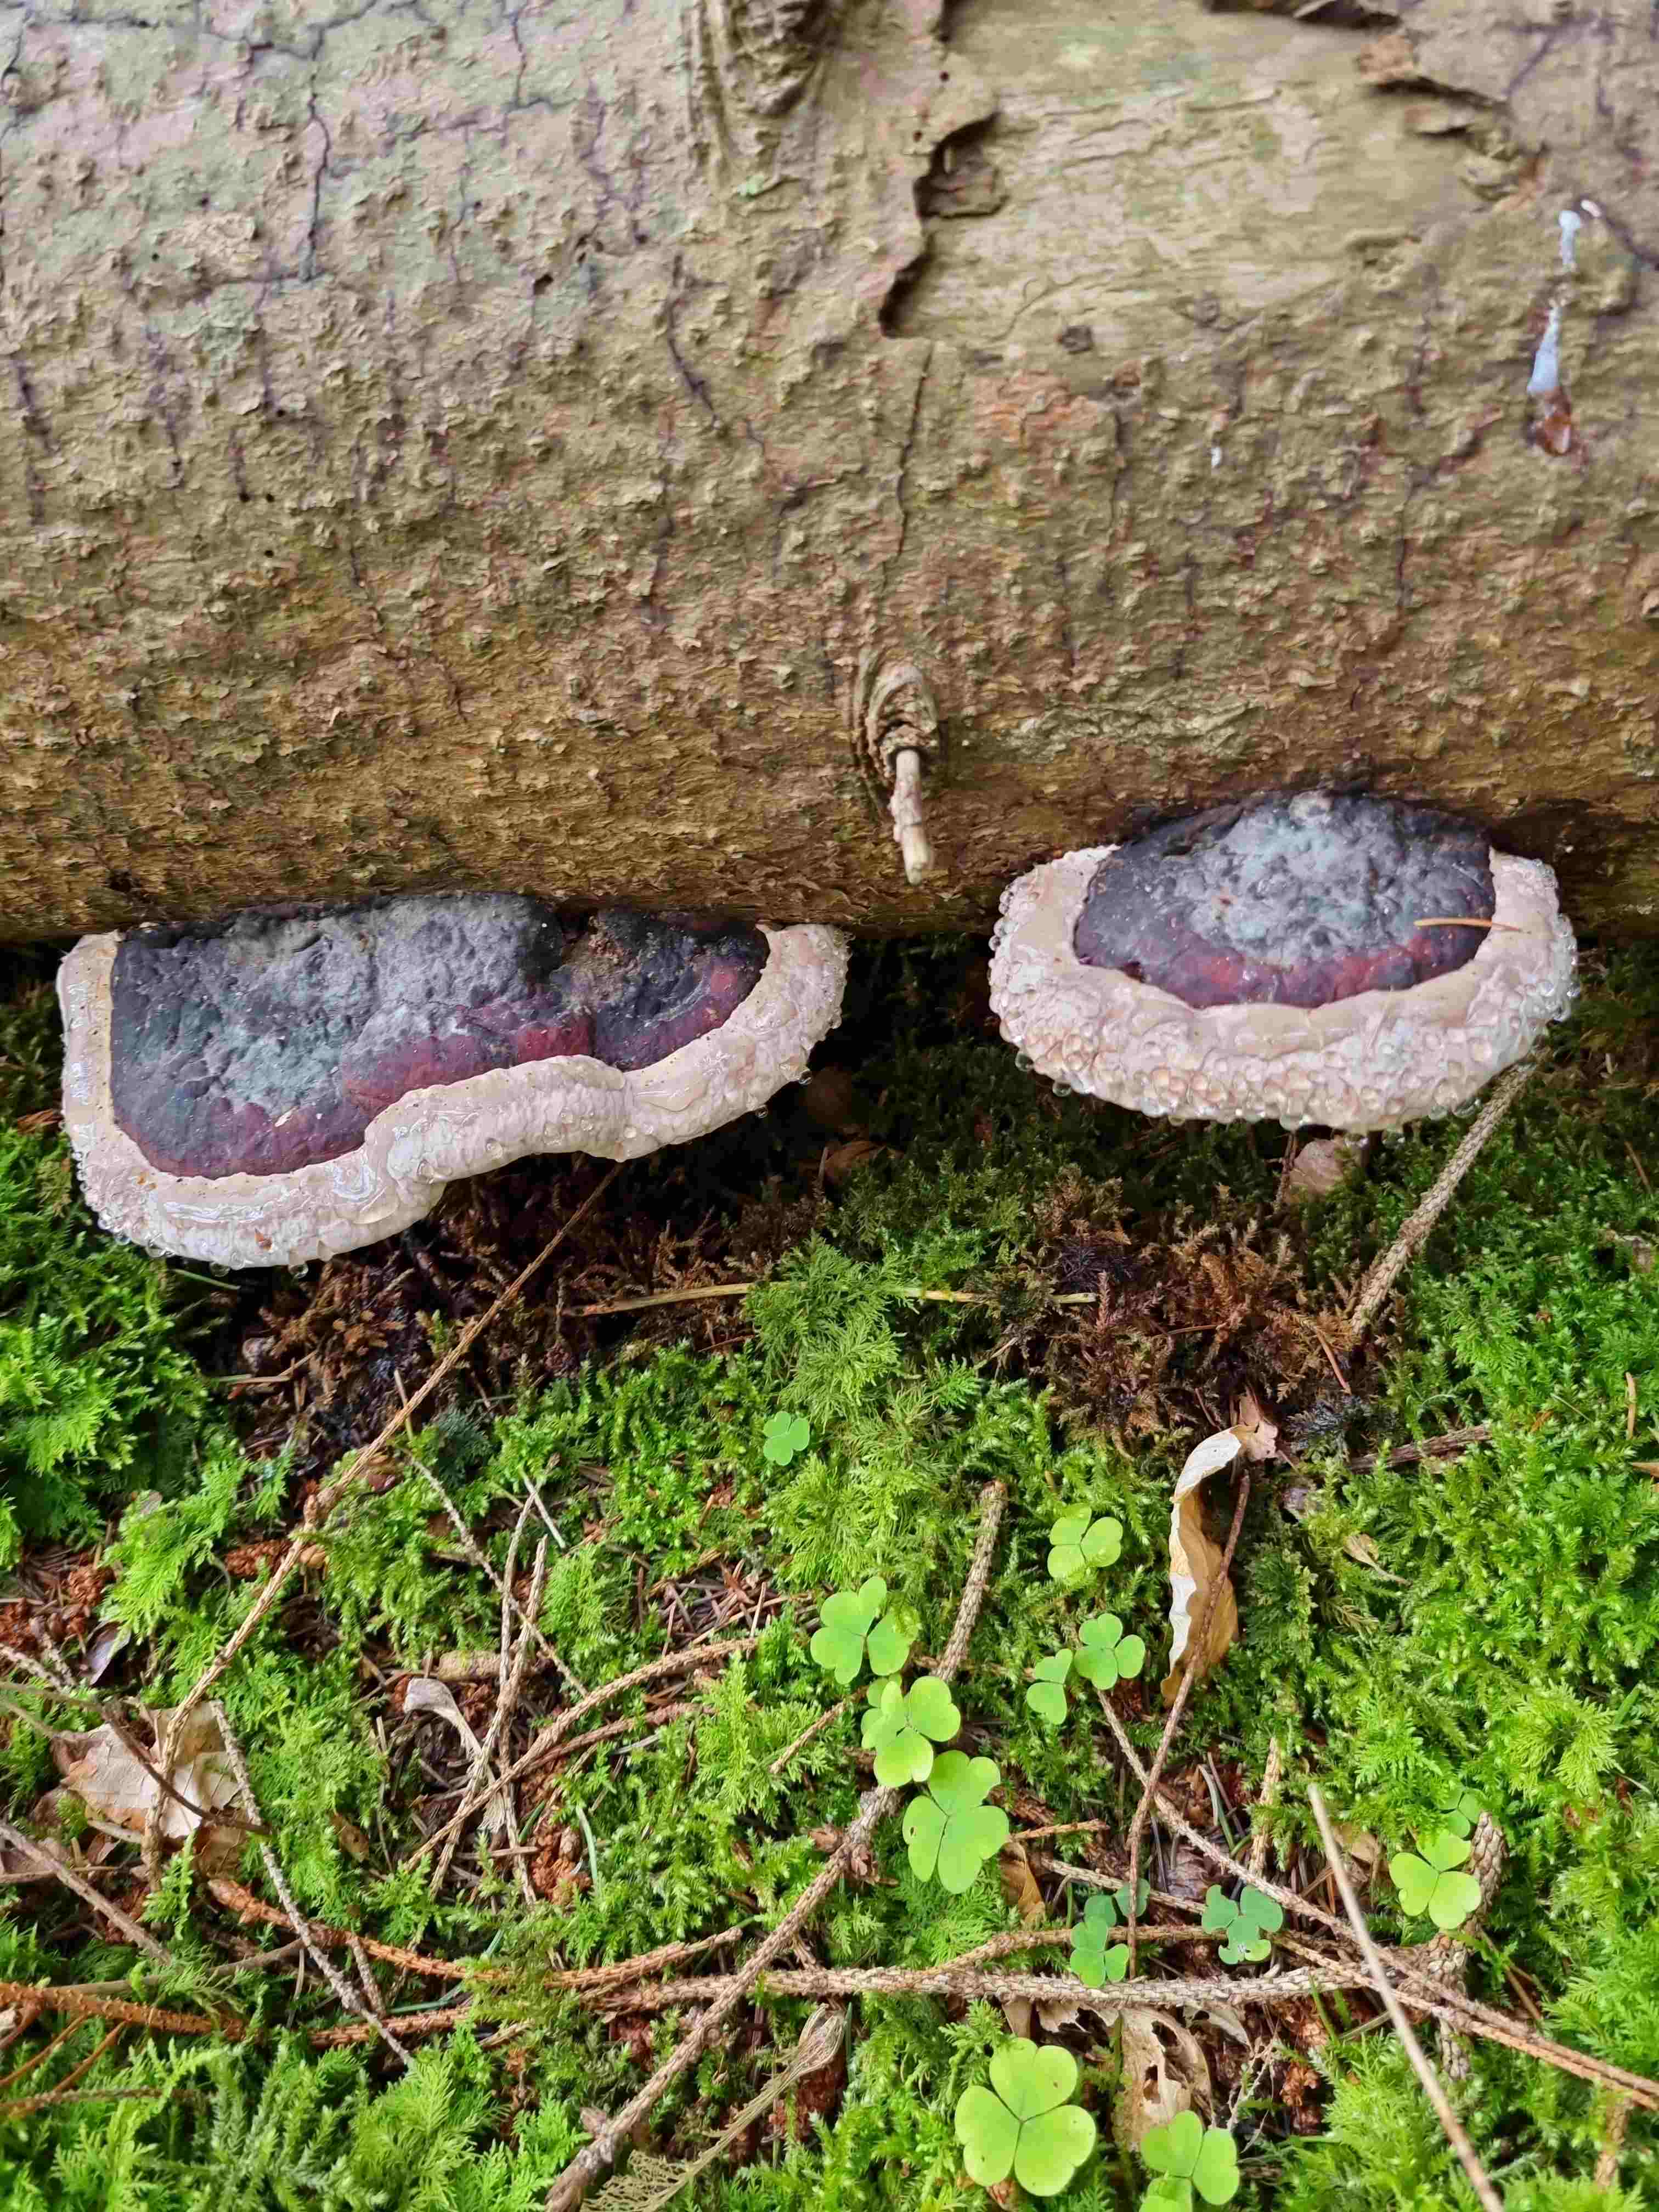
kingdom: Fungi
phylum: Basidiomycota
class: Agaricomycetes
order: Polyporales
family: Fomitopsidaceae
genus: Fomitopsis
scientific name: Fomitopsis pinicola
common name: randbæltet hovporesvamp
